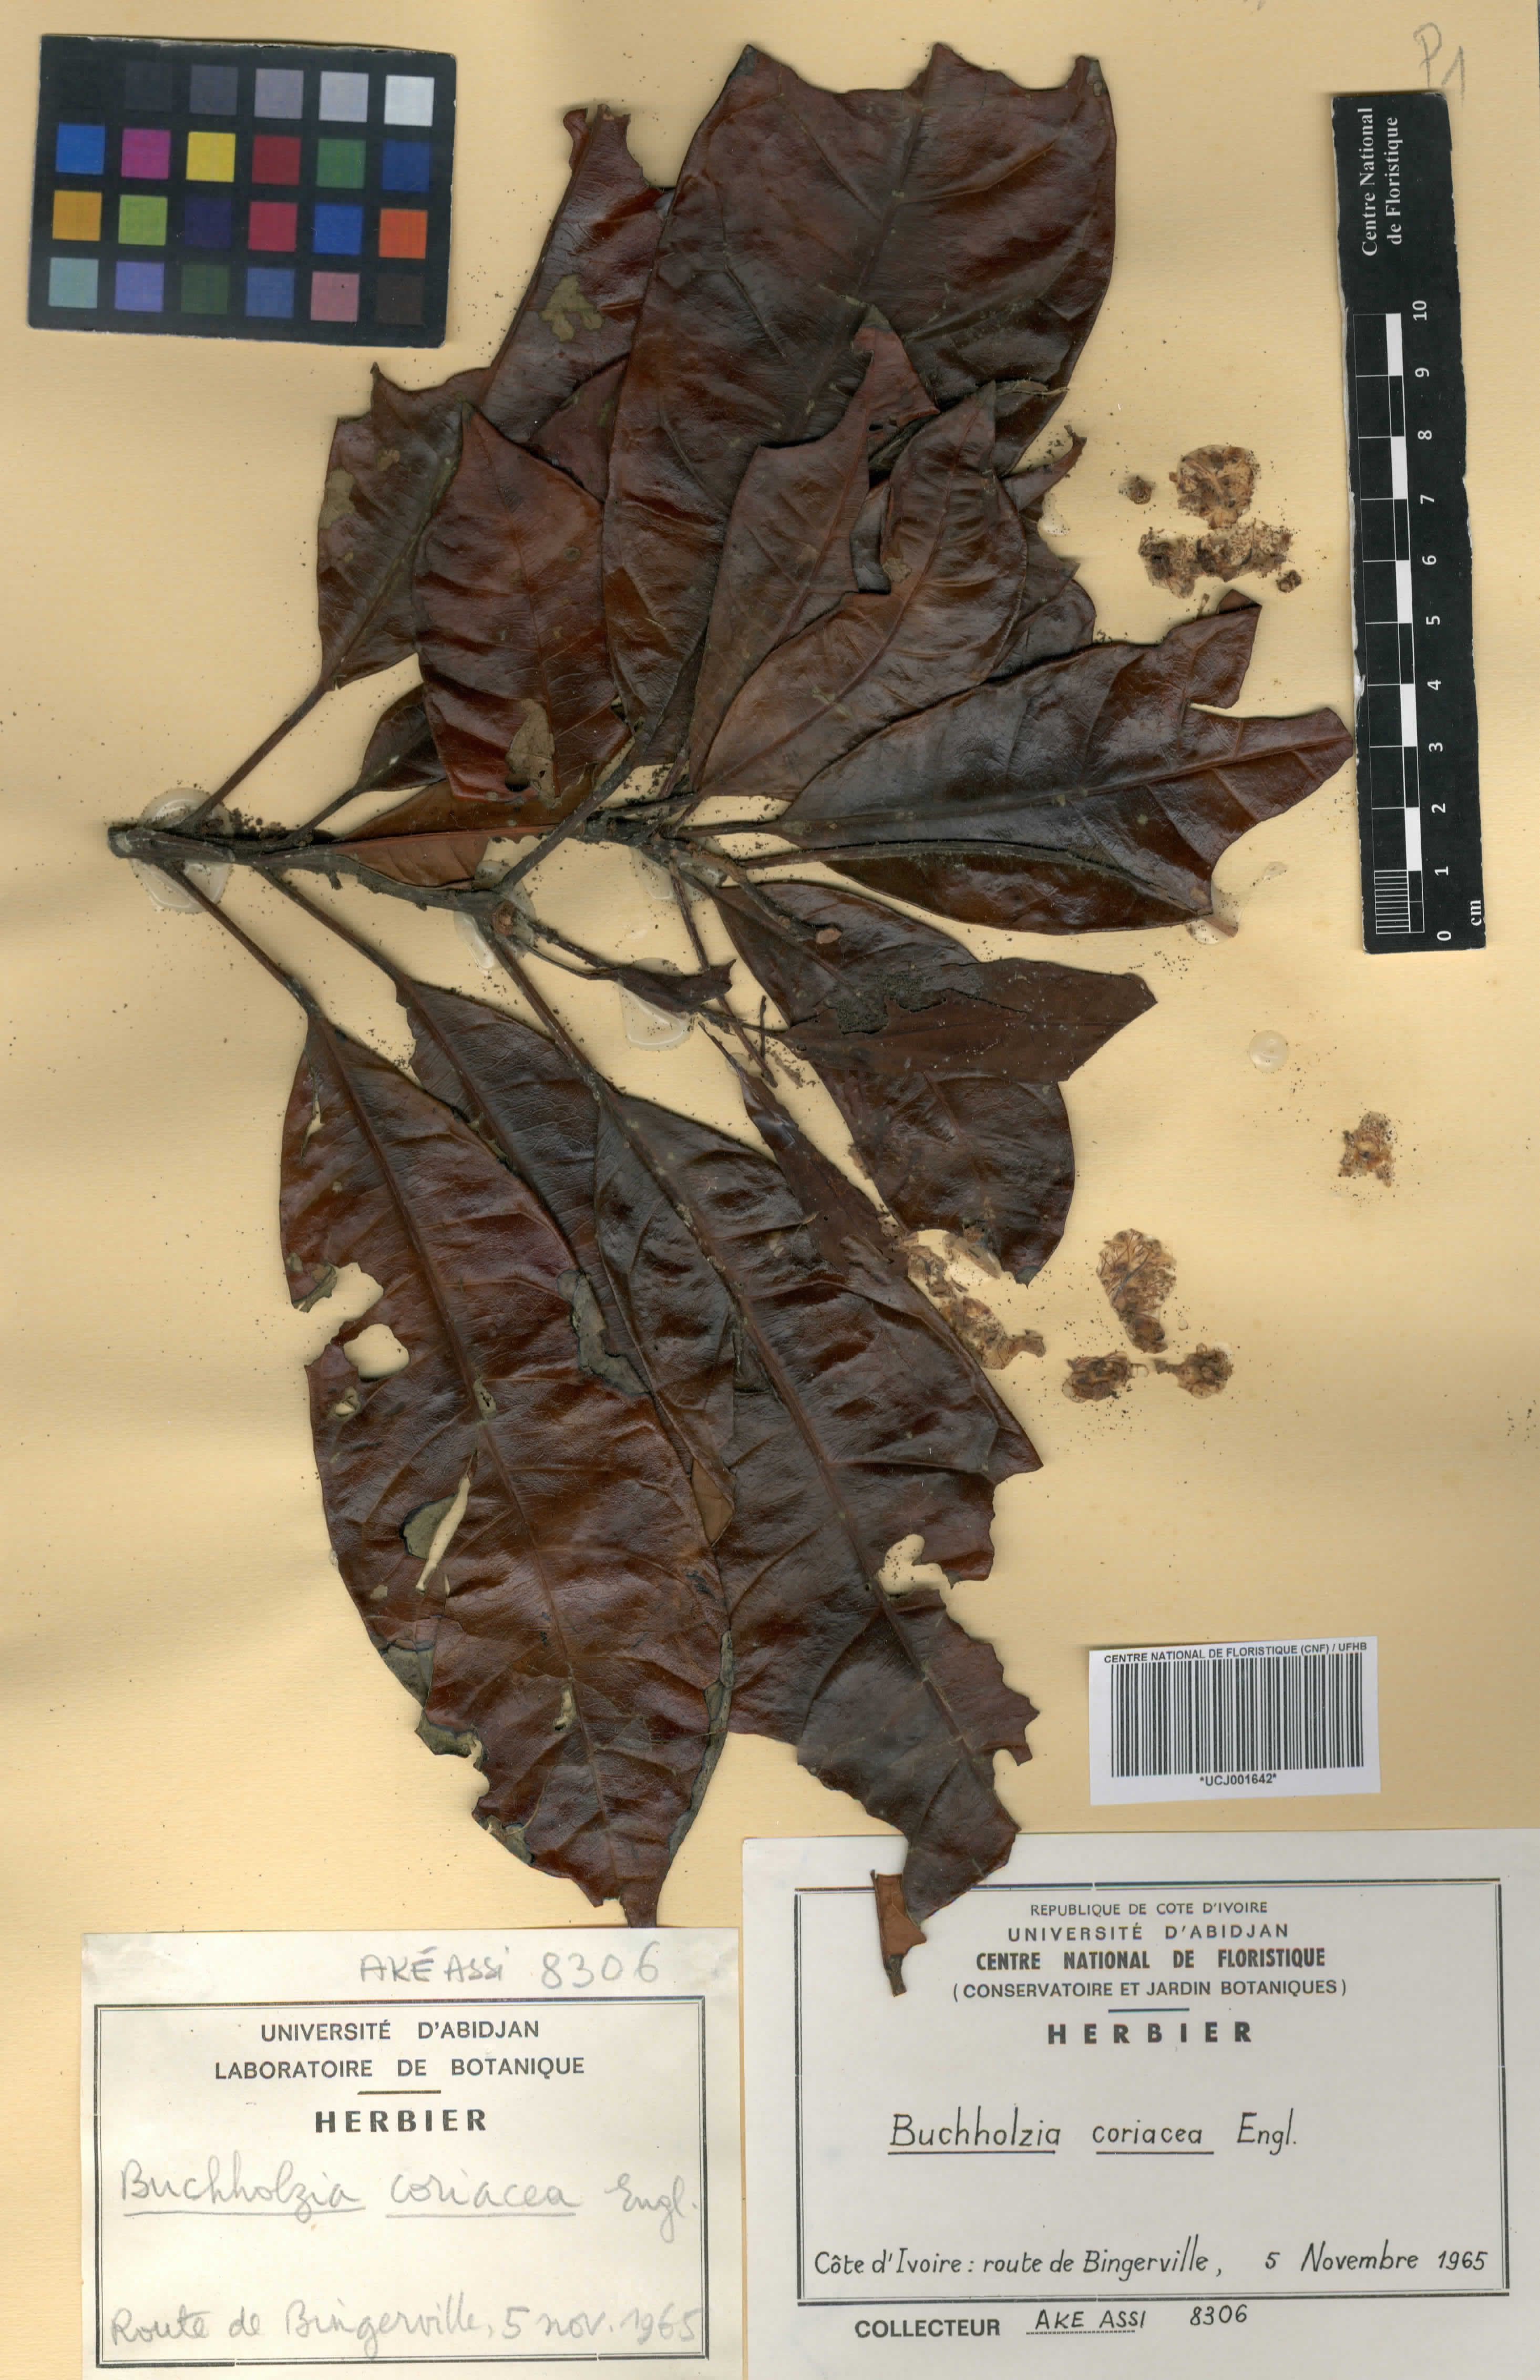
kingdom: Plantae
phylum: Tracheophyta
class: Magnoliopsida
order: Brassicales
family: Capparaceae
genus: Buchholzia
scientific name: Buchholzia coriacea
